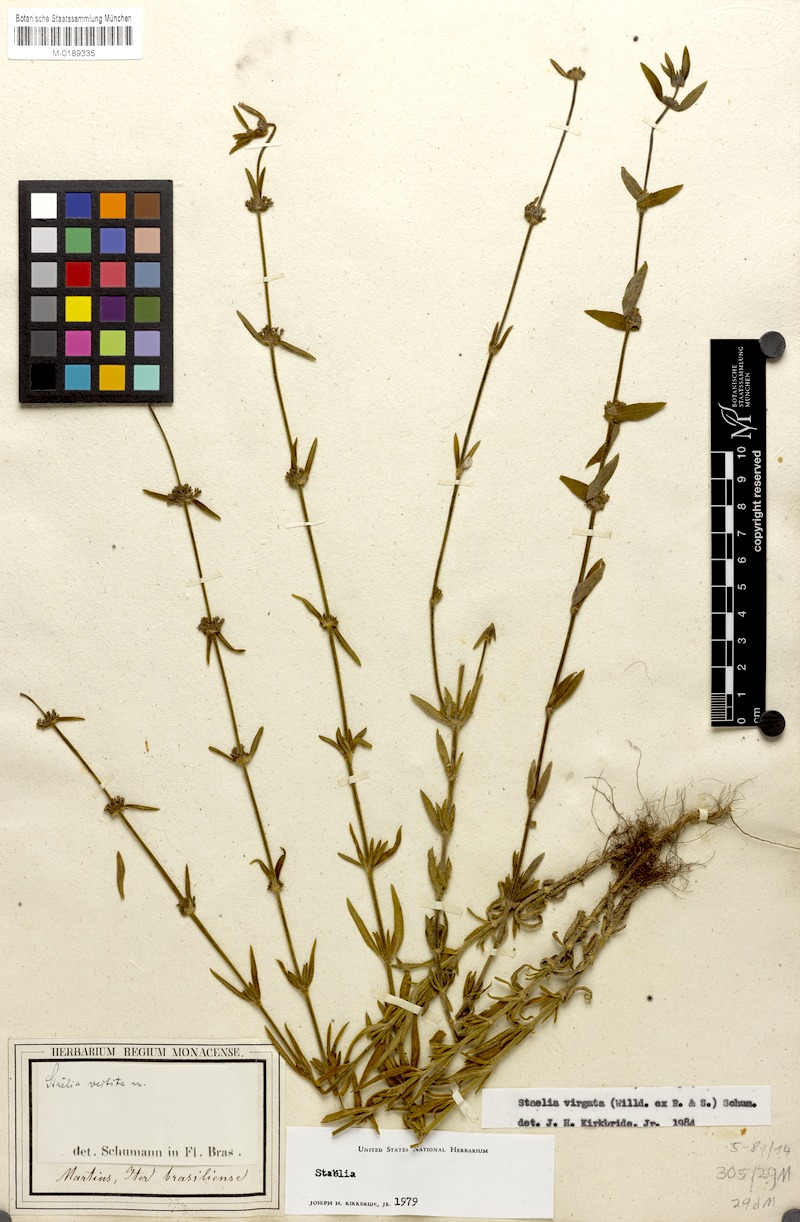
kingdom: Plantae
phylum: Tracheophyta
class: Magnoliopsida
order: Gentianales
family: Rubiaceae
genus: Staelia
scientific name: Staelia virgata
